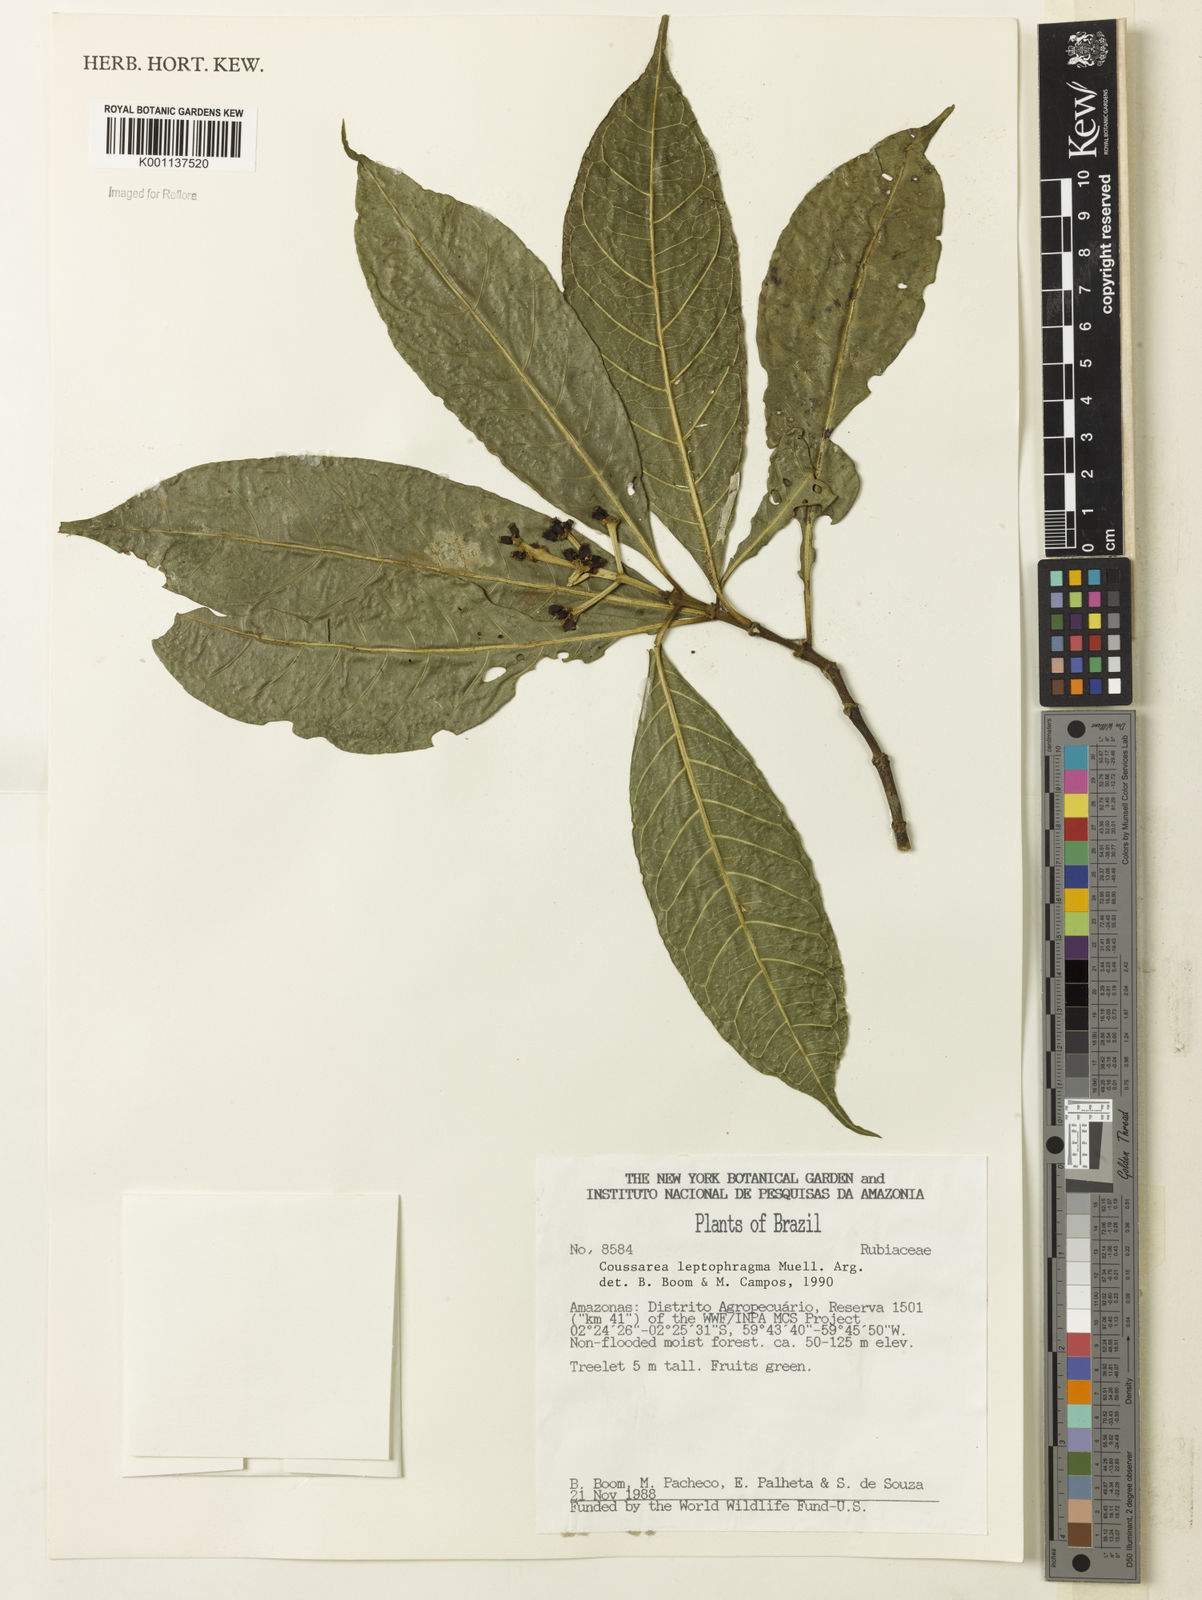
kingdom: Plantae
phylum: Tracheophyta
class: Magnoliopsida
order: Gentianales
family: Rubiaceae
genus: Coussarea
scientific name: Coussarea
